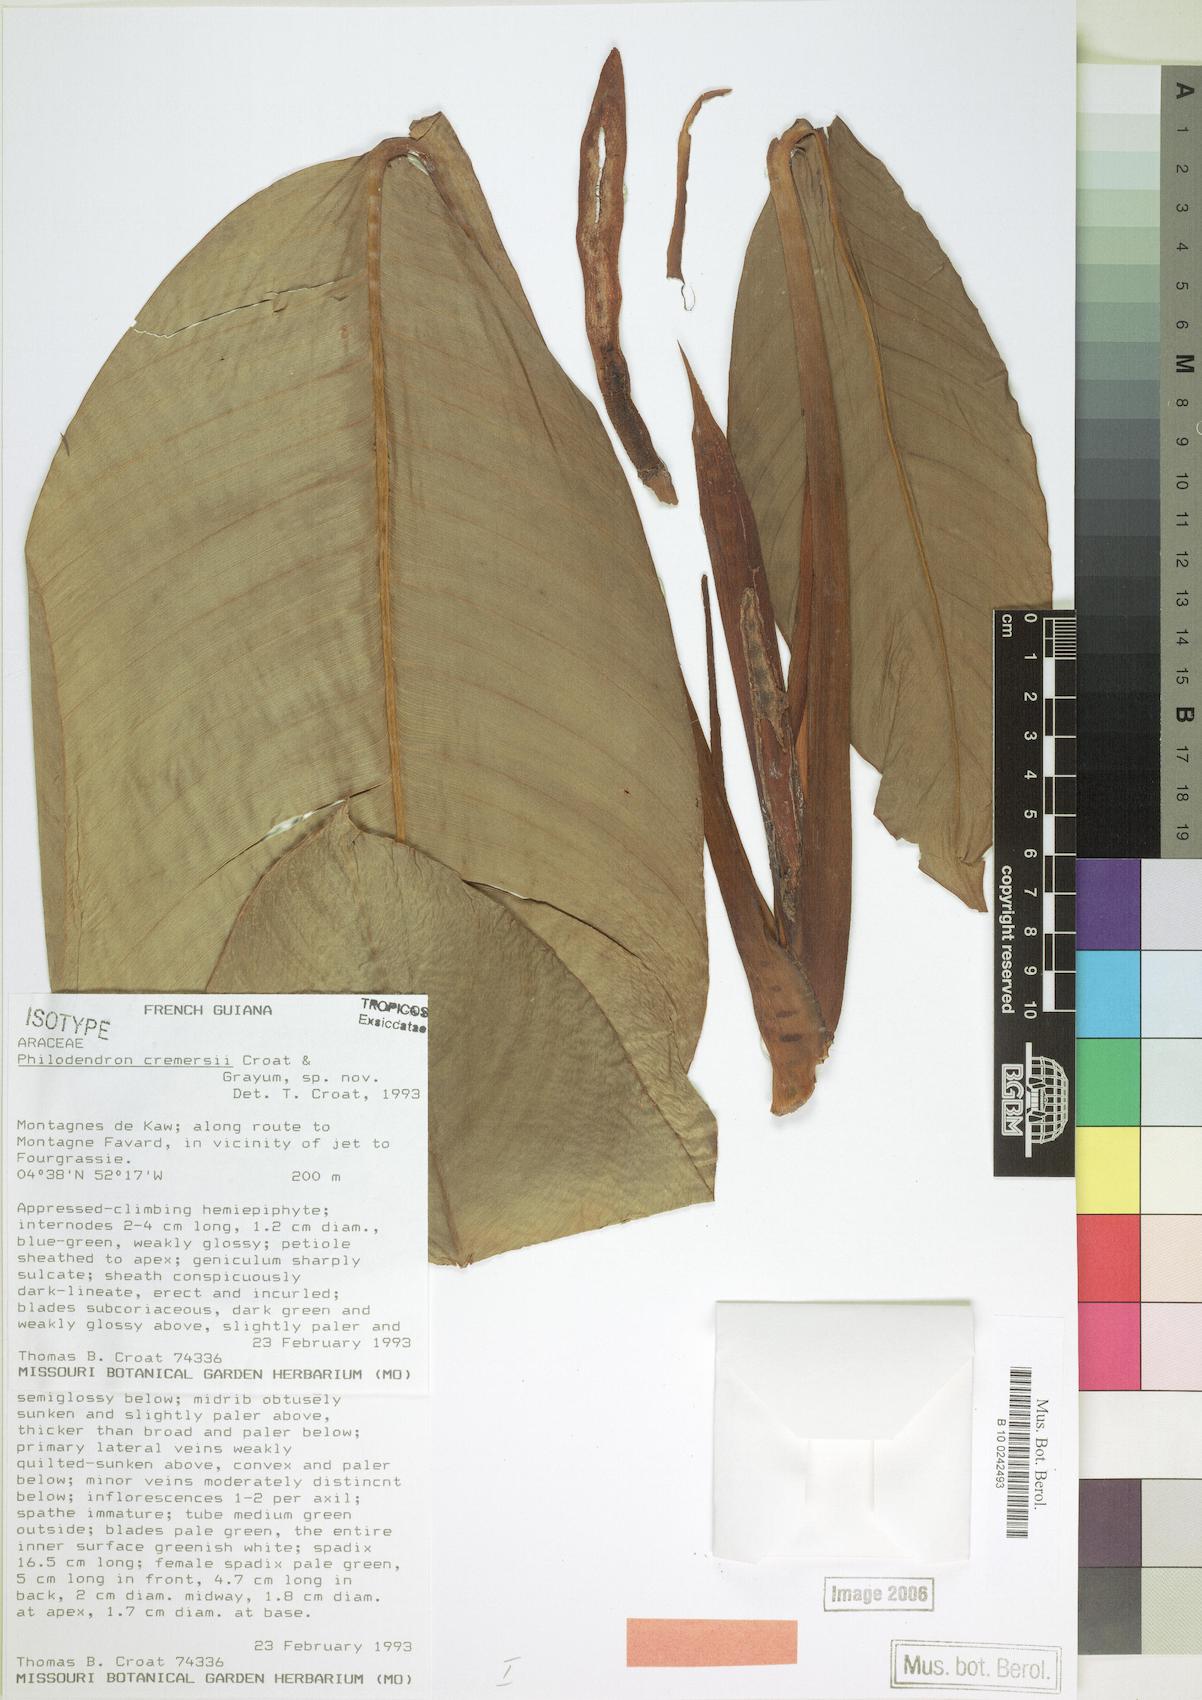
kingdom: Plantae
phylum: Tracheophyta
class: Liliopsida
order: Alismatales
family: Araceae
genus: Philodendron
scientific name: Philodendron cremersii
